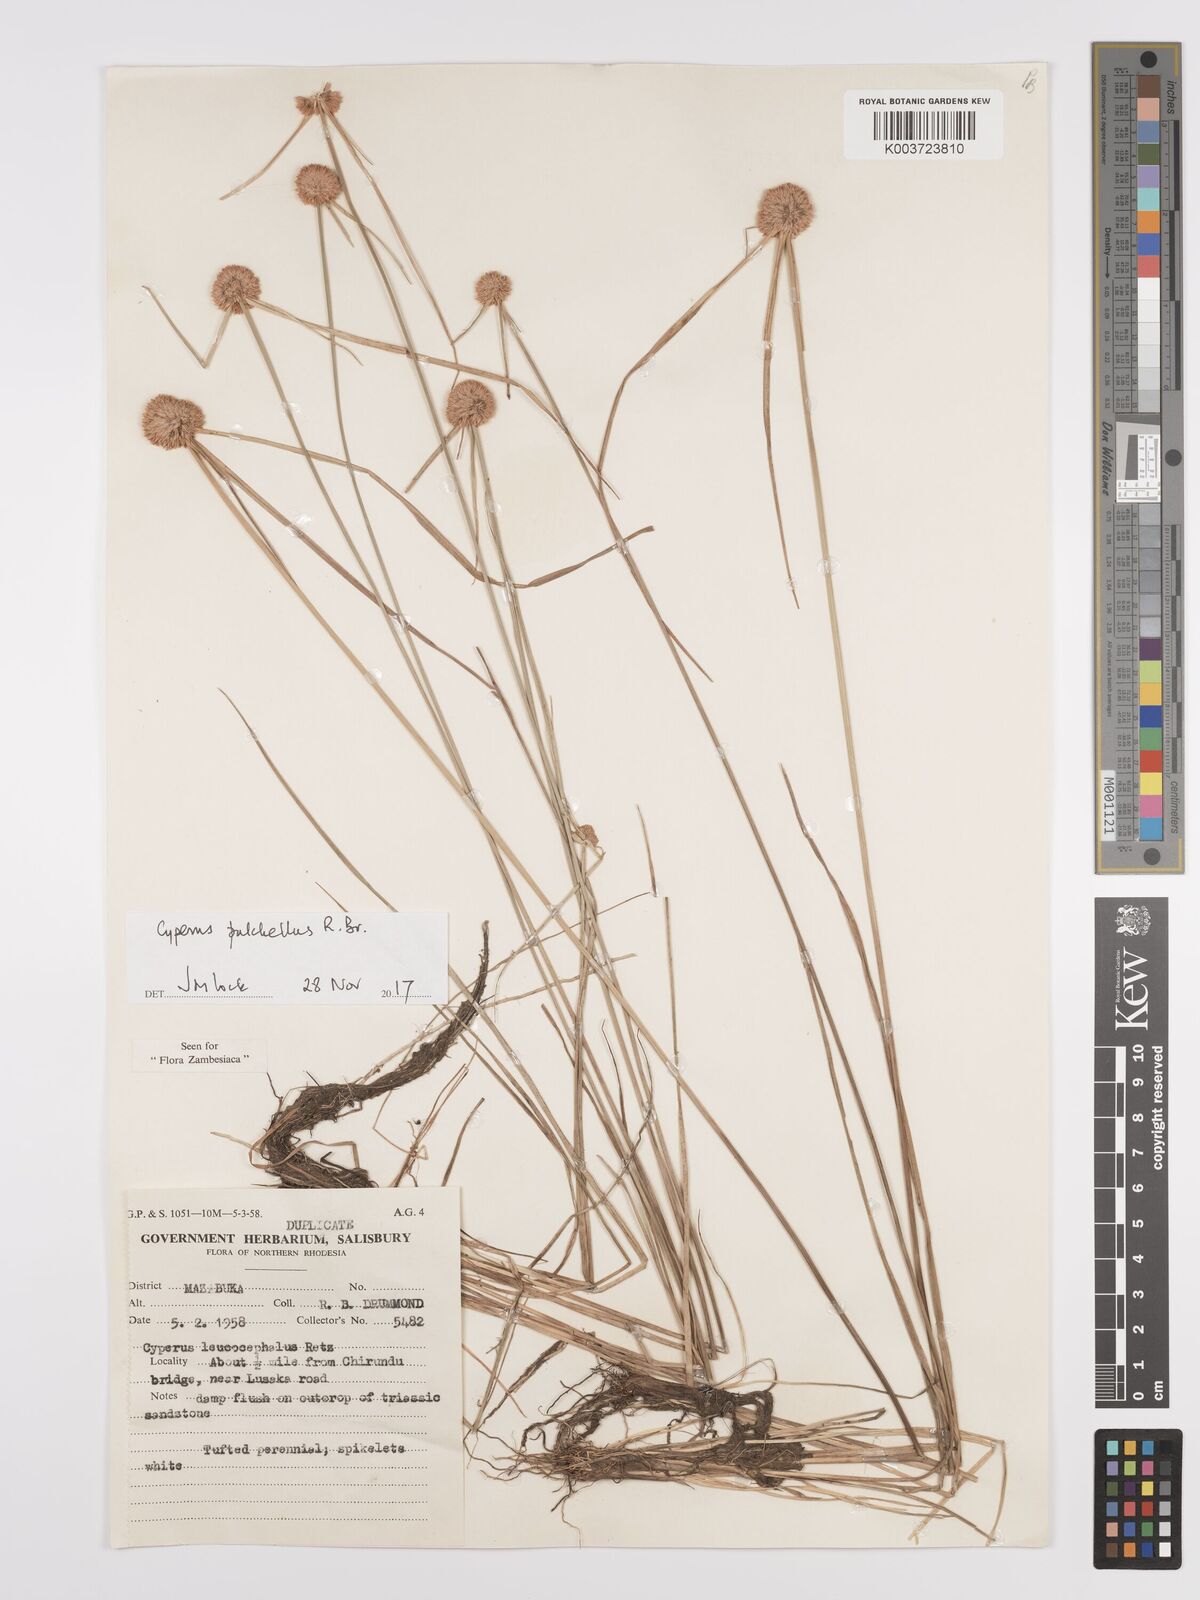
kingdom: Plantae
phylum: Tracheophyta
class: Liliopsida
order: Poales
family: Cyperaceae
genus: Cyperus
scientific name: Cyperus pulchellus
